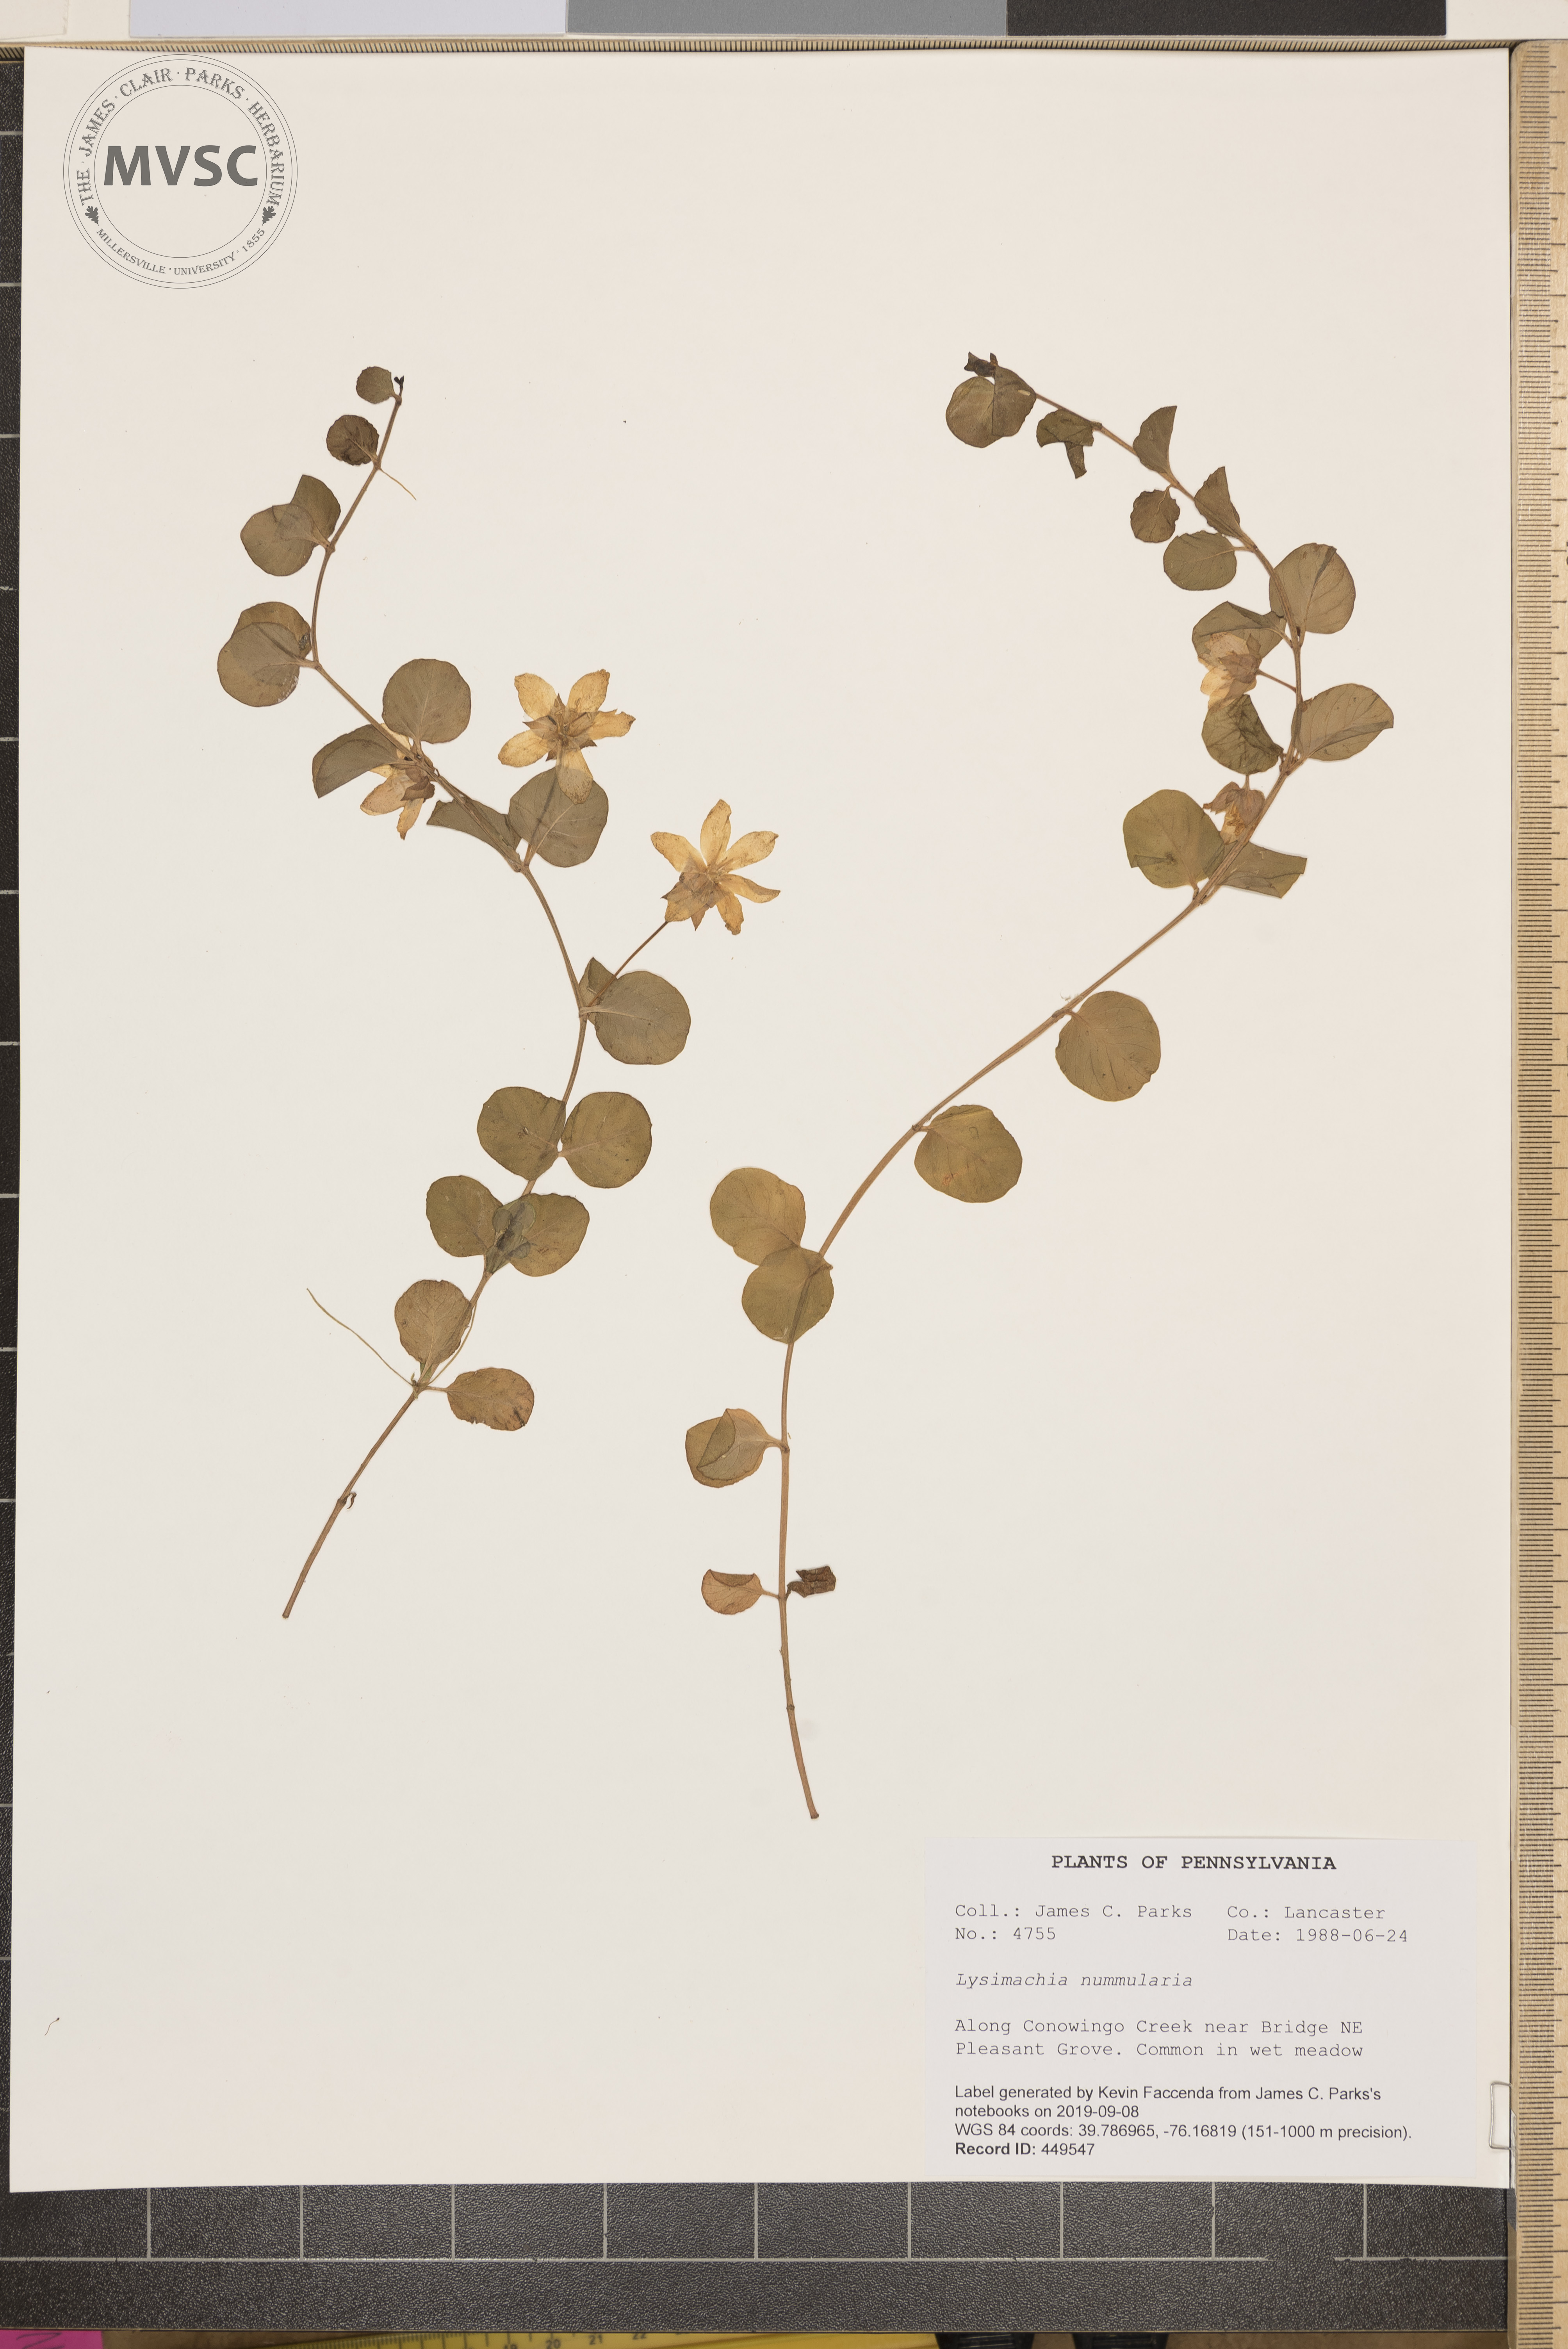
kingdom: Plantae
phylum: Tracheophyta
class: Magnoliopsida
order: Ericales
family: Primulaceae
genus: Lysimachia
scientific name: Lysimachia nummularia
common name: Moneywort
